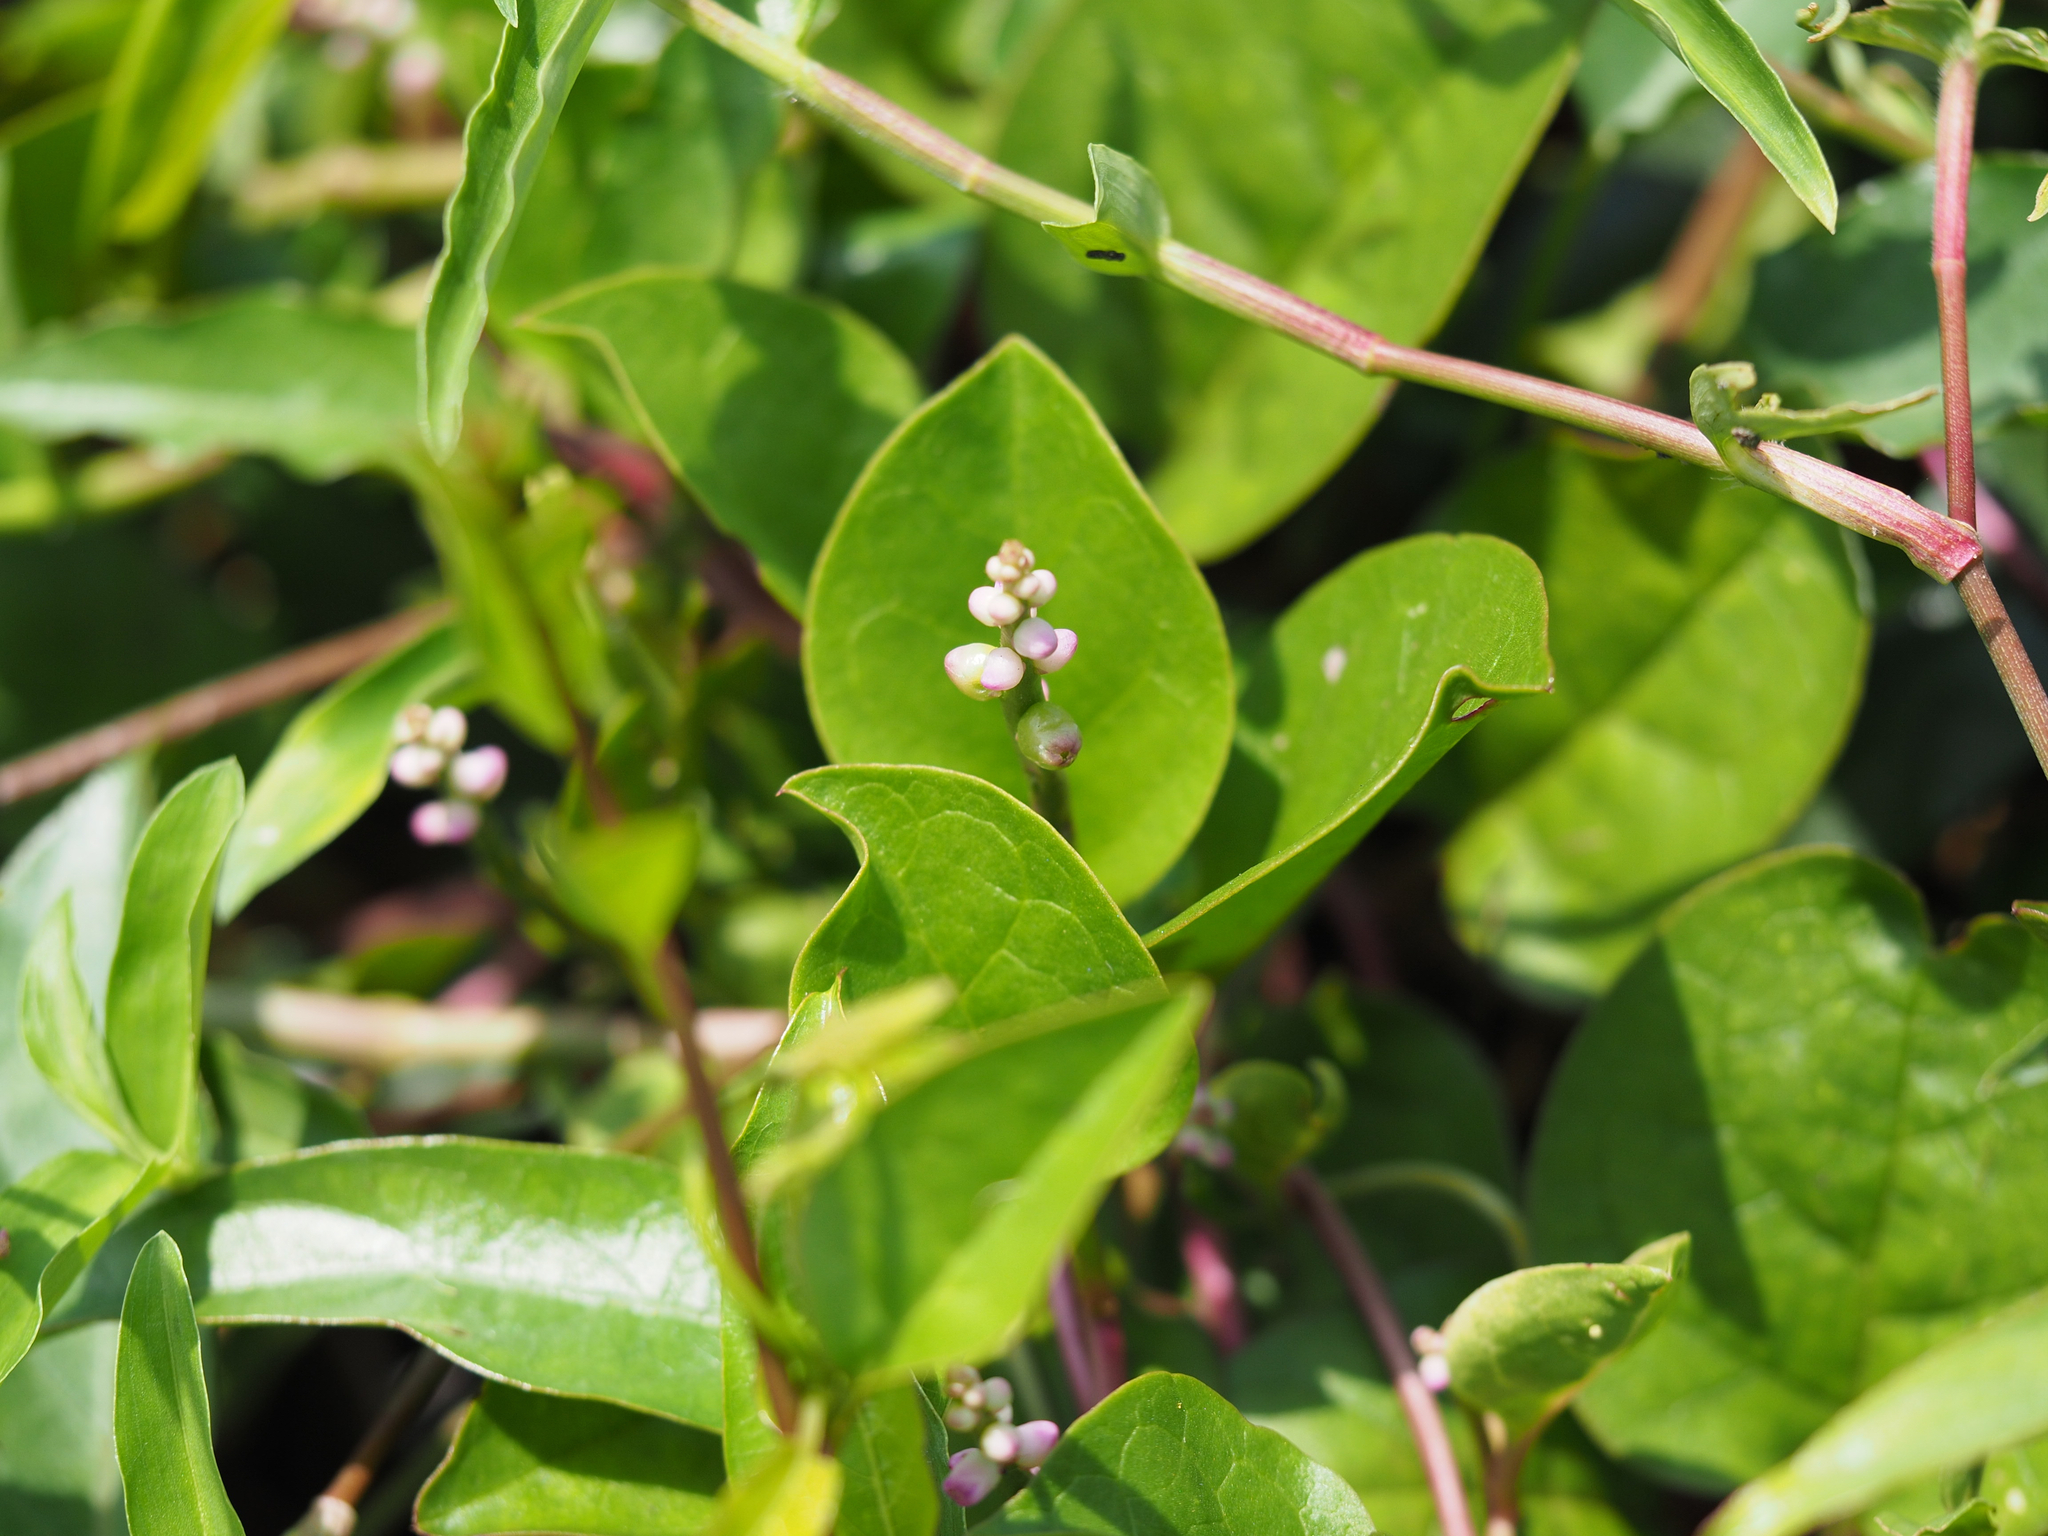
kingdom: Plantae
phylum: Tracheophyta
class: Magnoliopsida
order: Caryophyllales
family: Basellaceae
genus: Basella
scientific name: Basella alba
